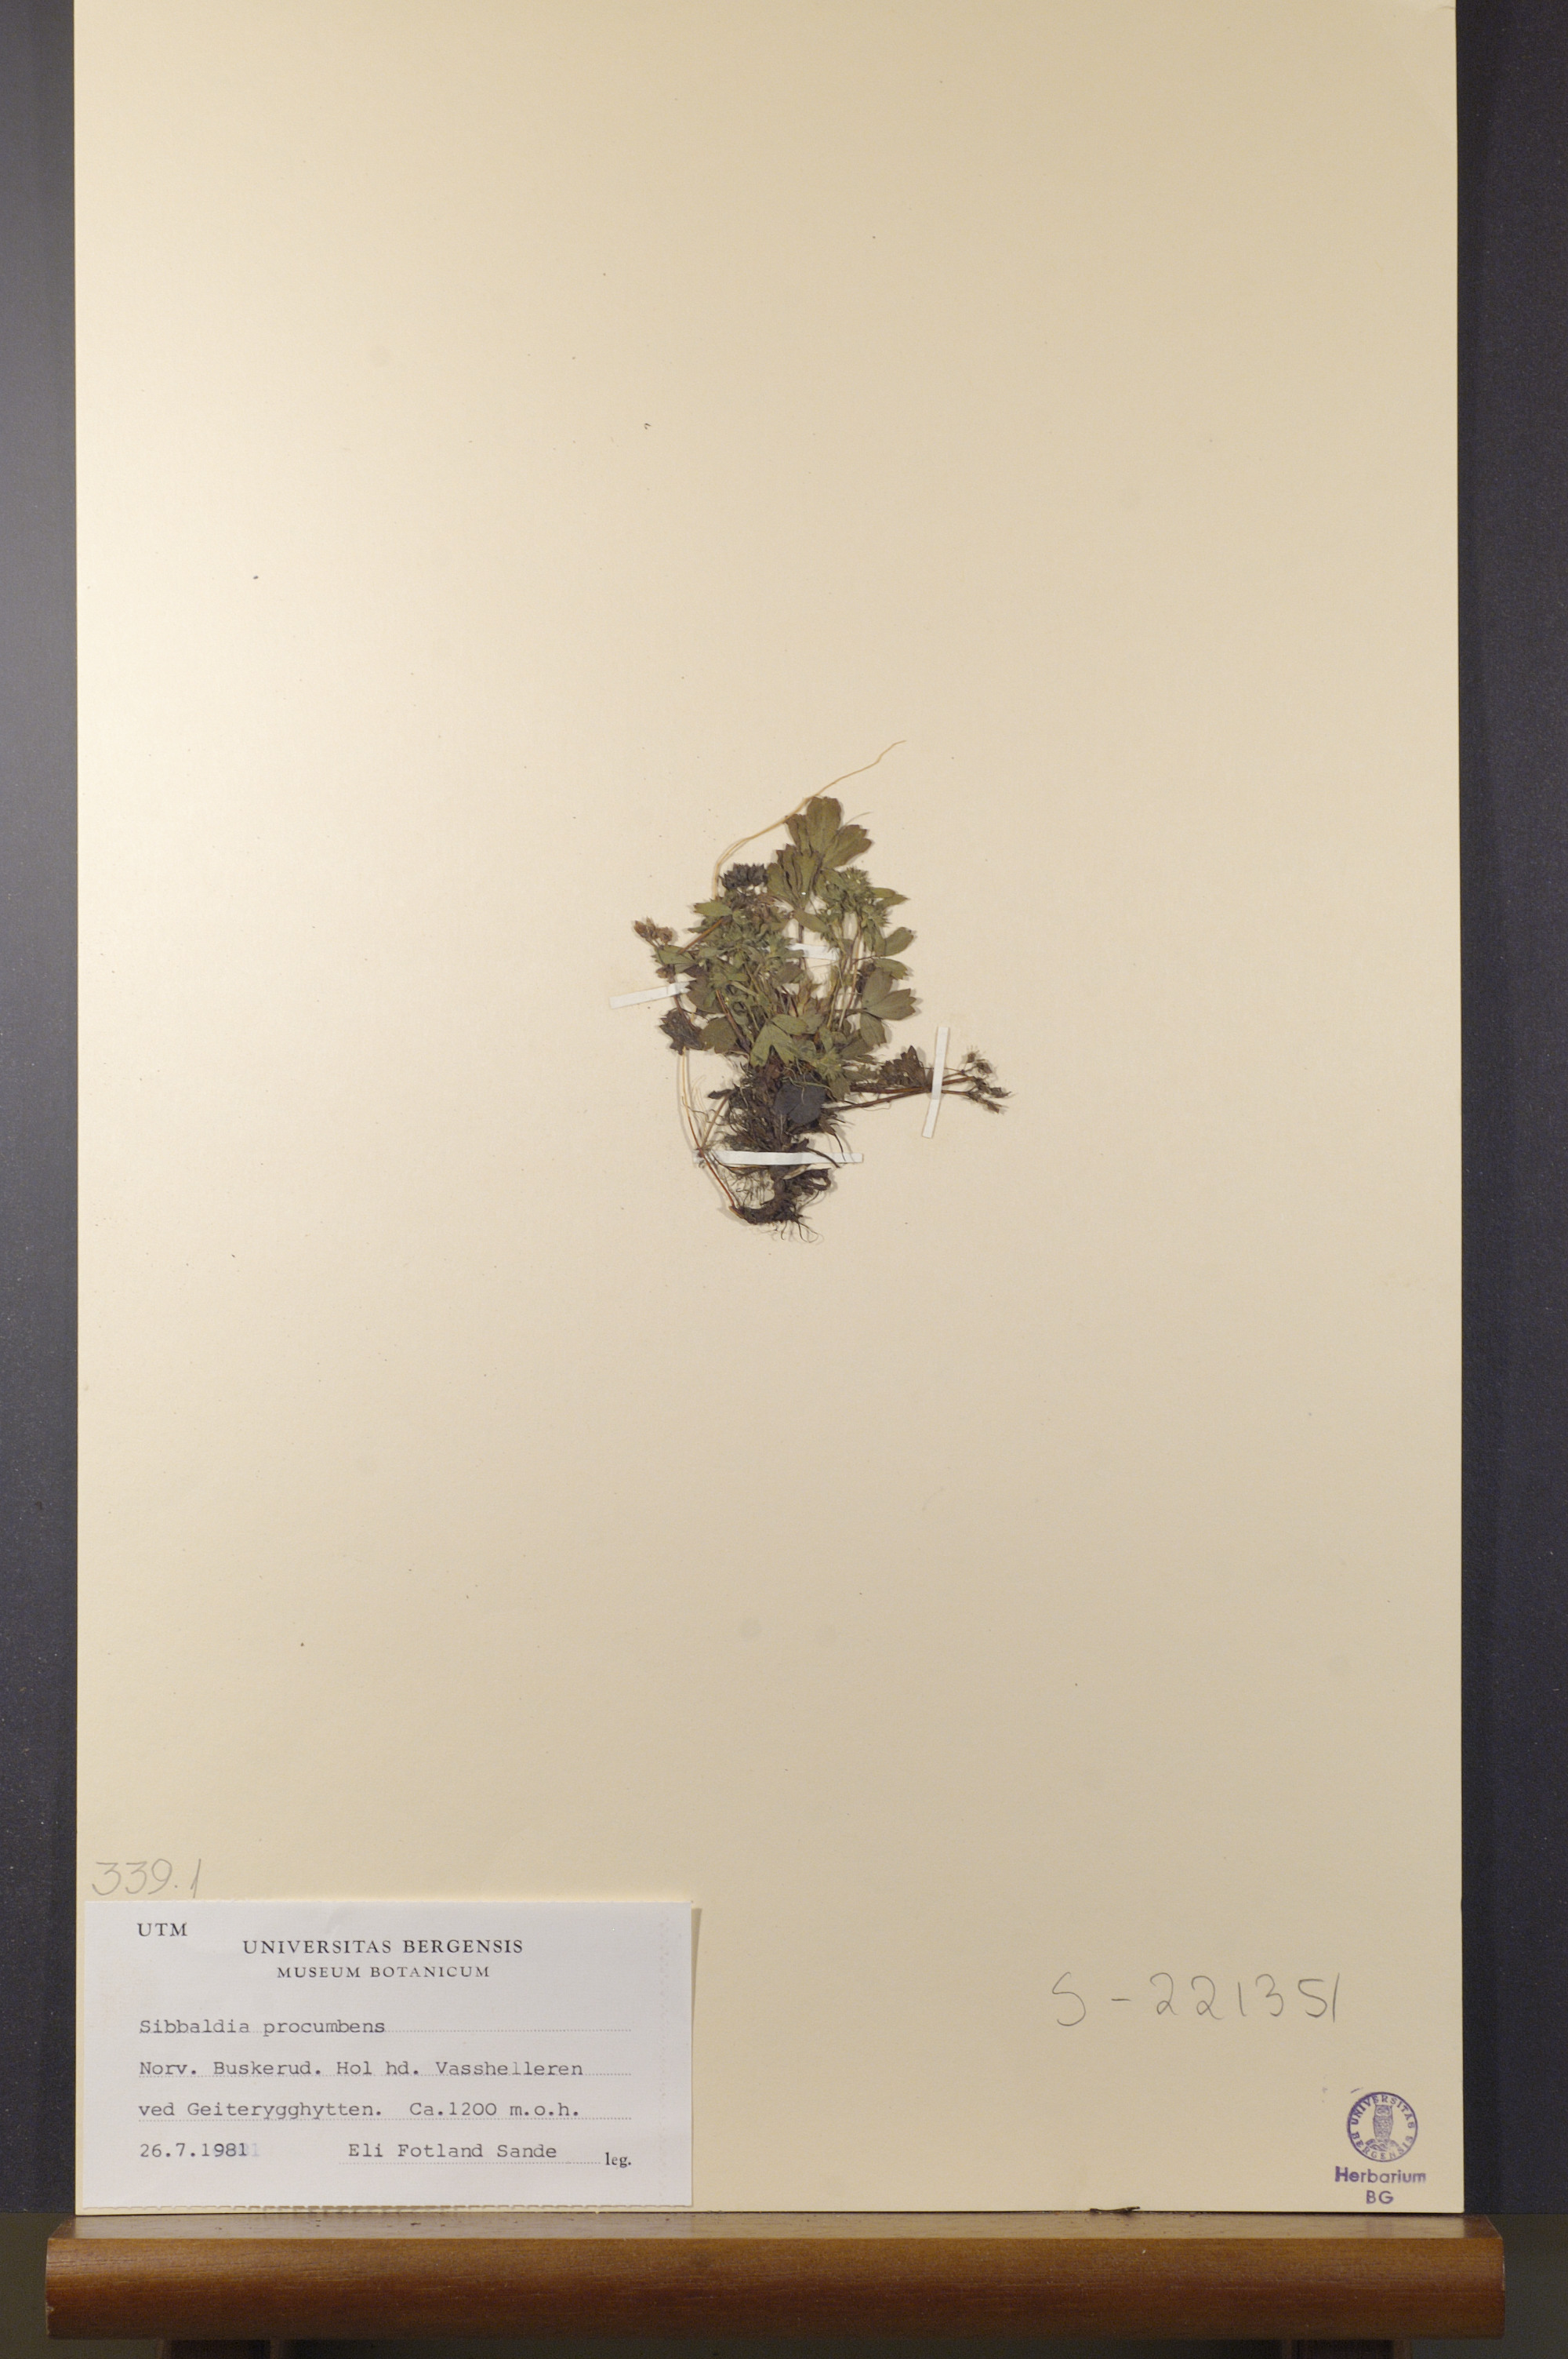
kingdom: Plantae
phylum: Tracheophyta
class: Magnoliopsida
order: Rosales
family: Rosaceae
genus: Sibbaldia
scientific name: Sibbaldia procumbens
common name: Creeping sibbaldia
